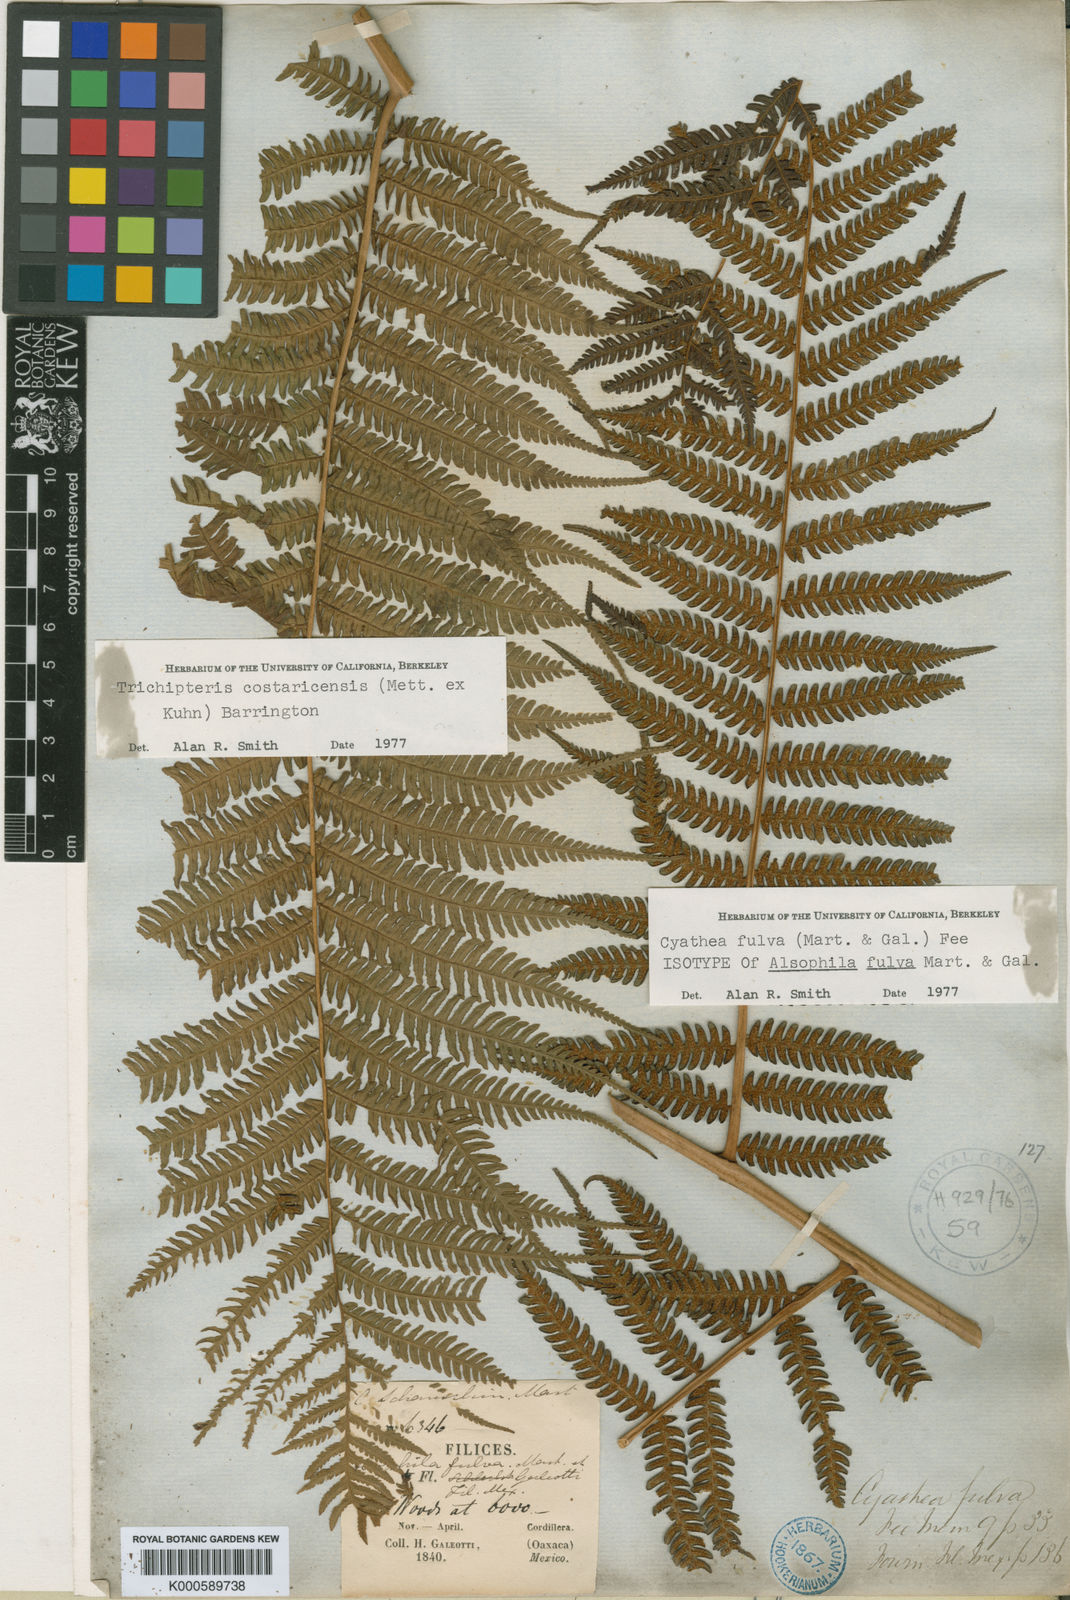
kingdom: Plantae
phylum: Tracheophyta
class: Polypodiopsida
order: Cyatheales
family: Cyatheaceae
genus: Cyathea
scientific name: Cyathea
